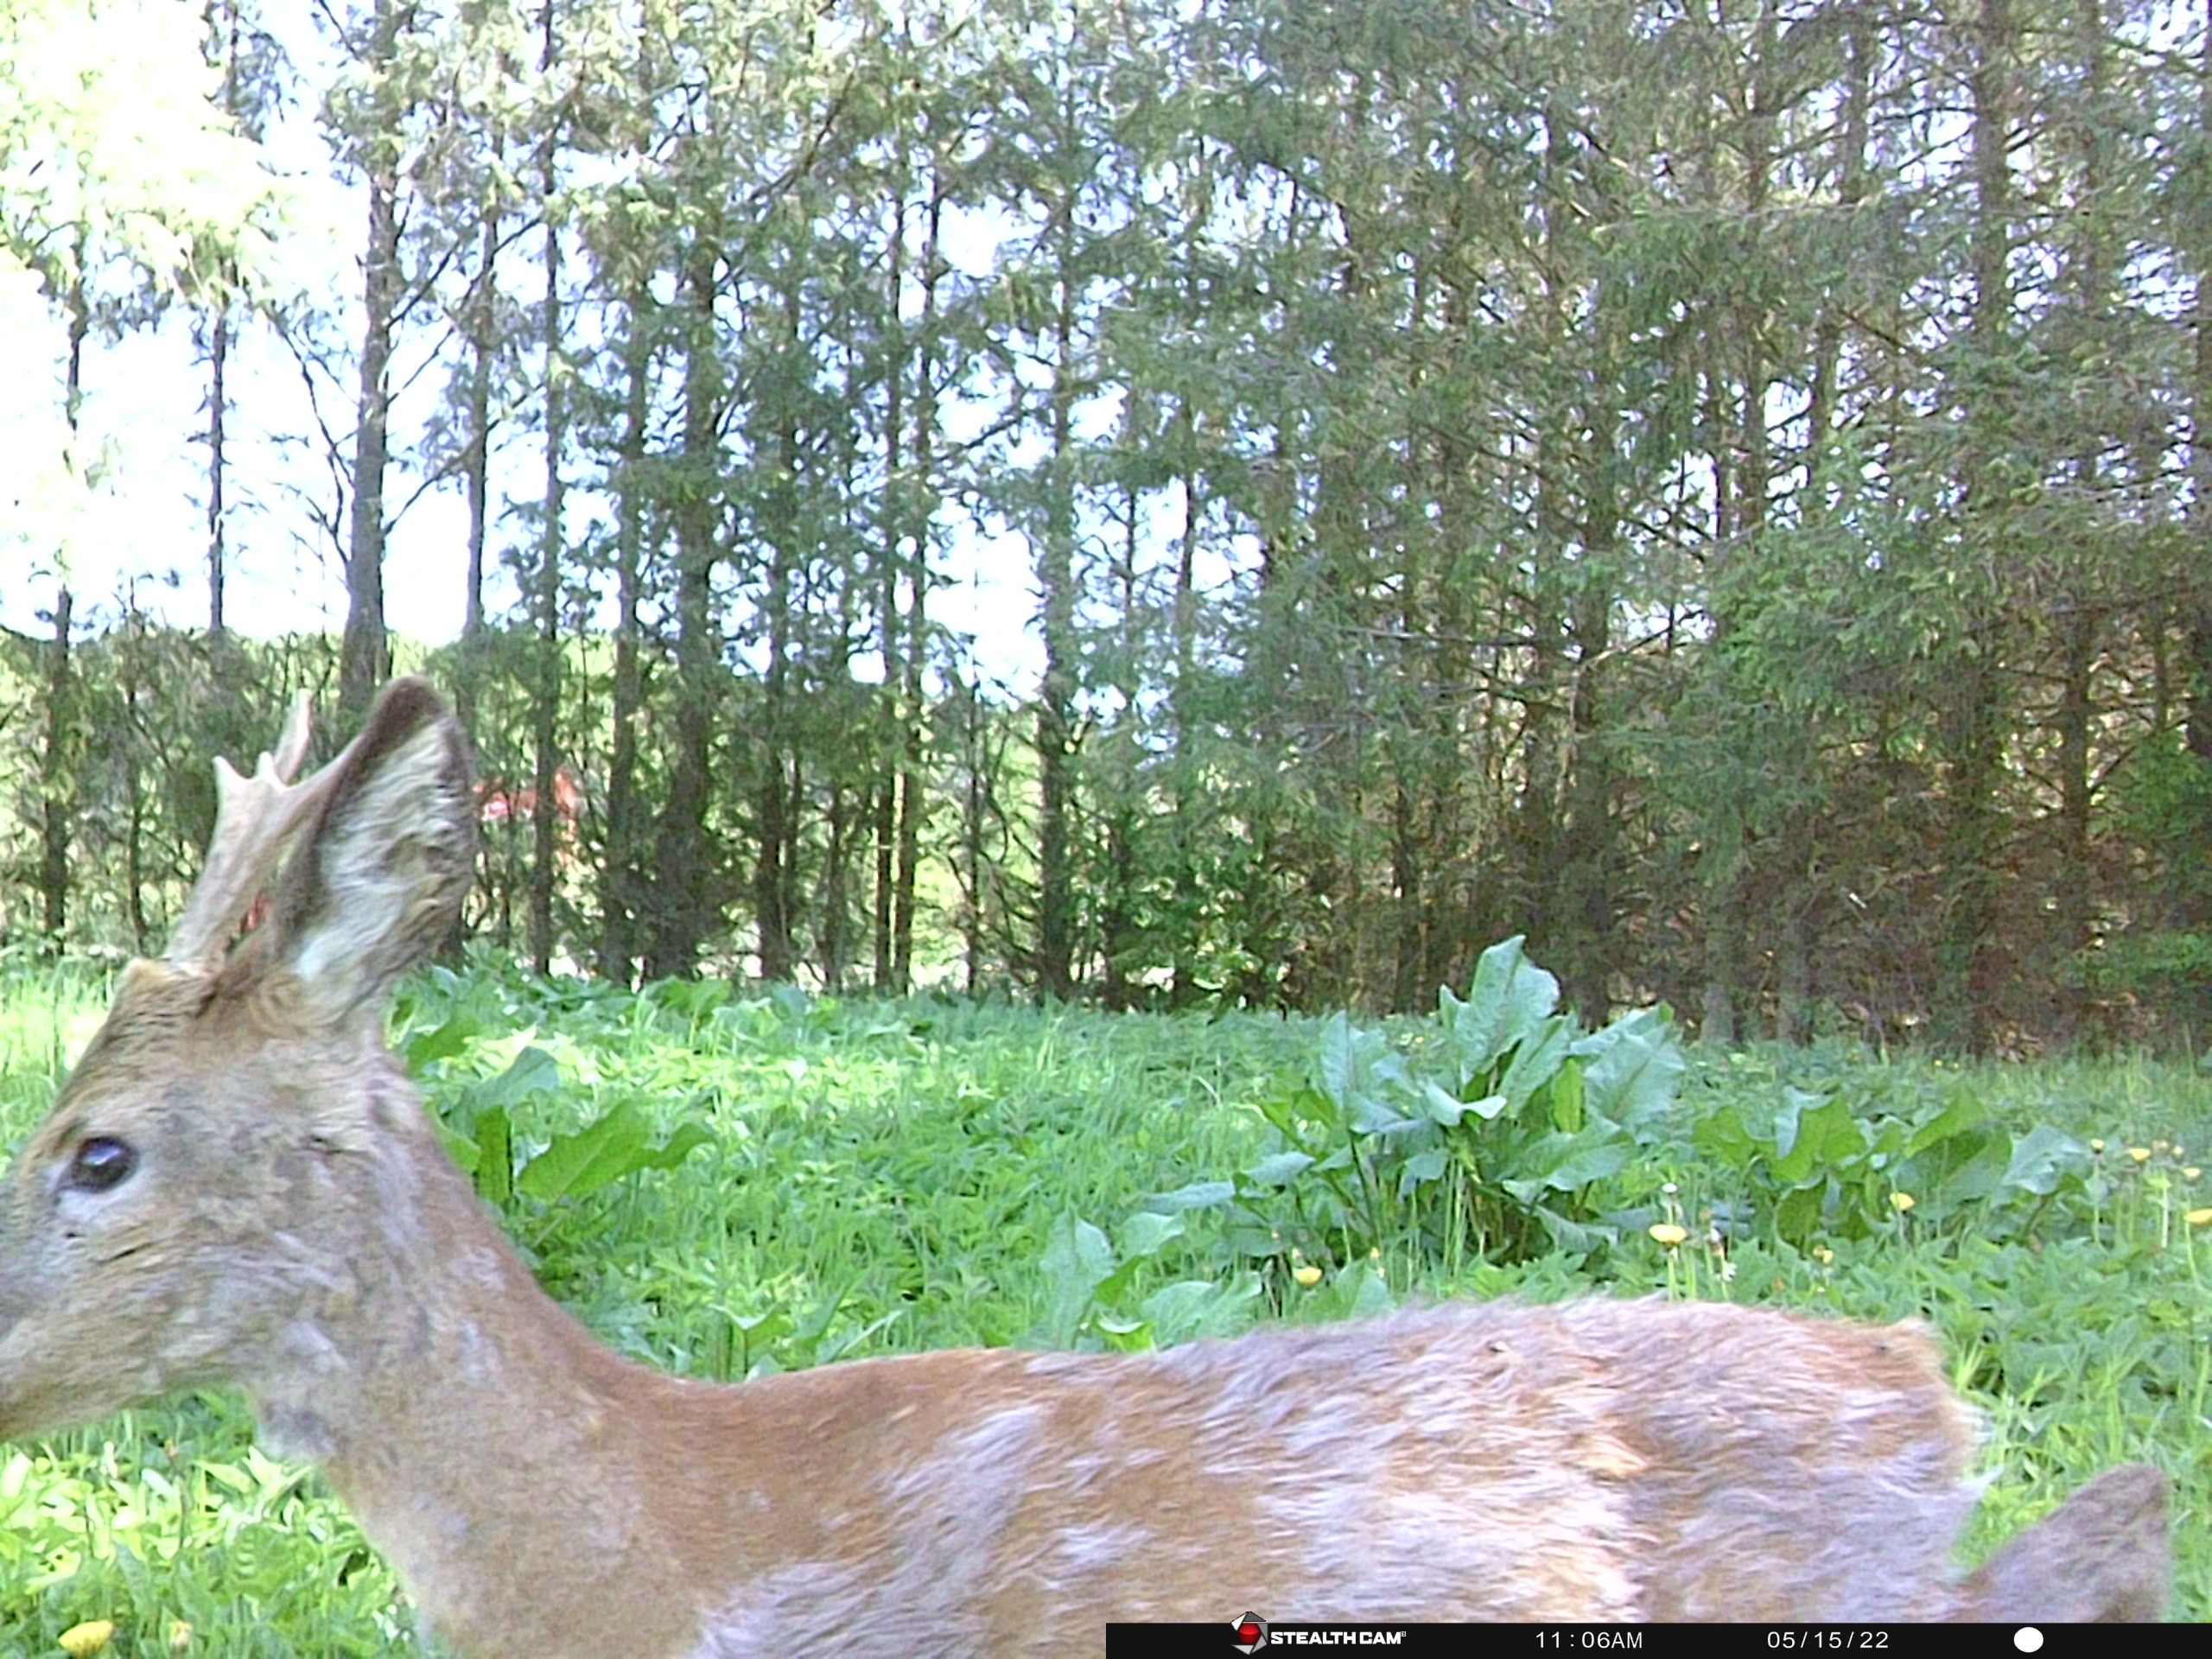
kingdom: Animalia
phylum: Chordata
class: Mammalia
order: Artiodactyla
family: Cervidae
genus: Capreolus
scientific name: Capreolus capreolus
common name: Rådyr
